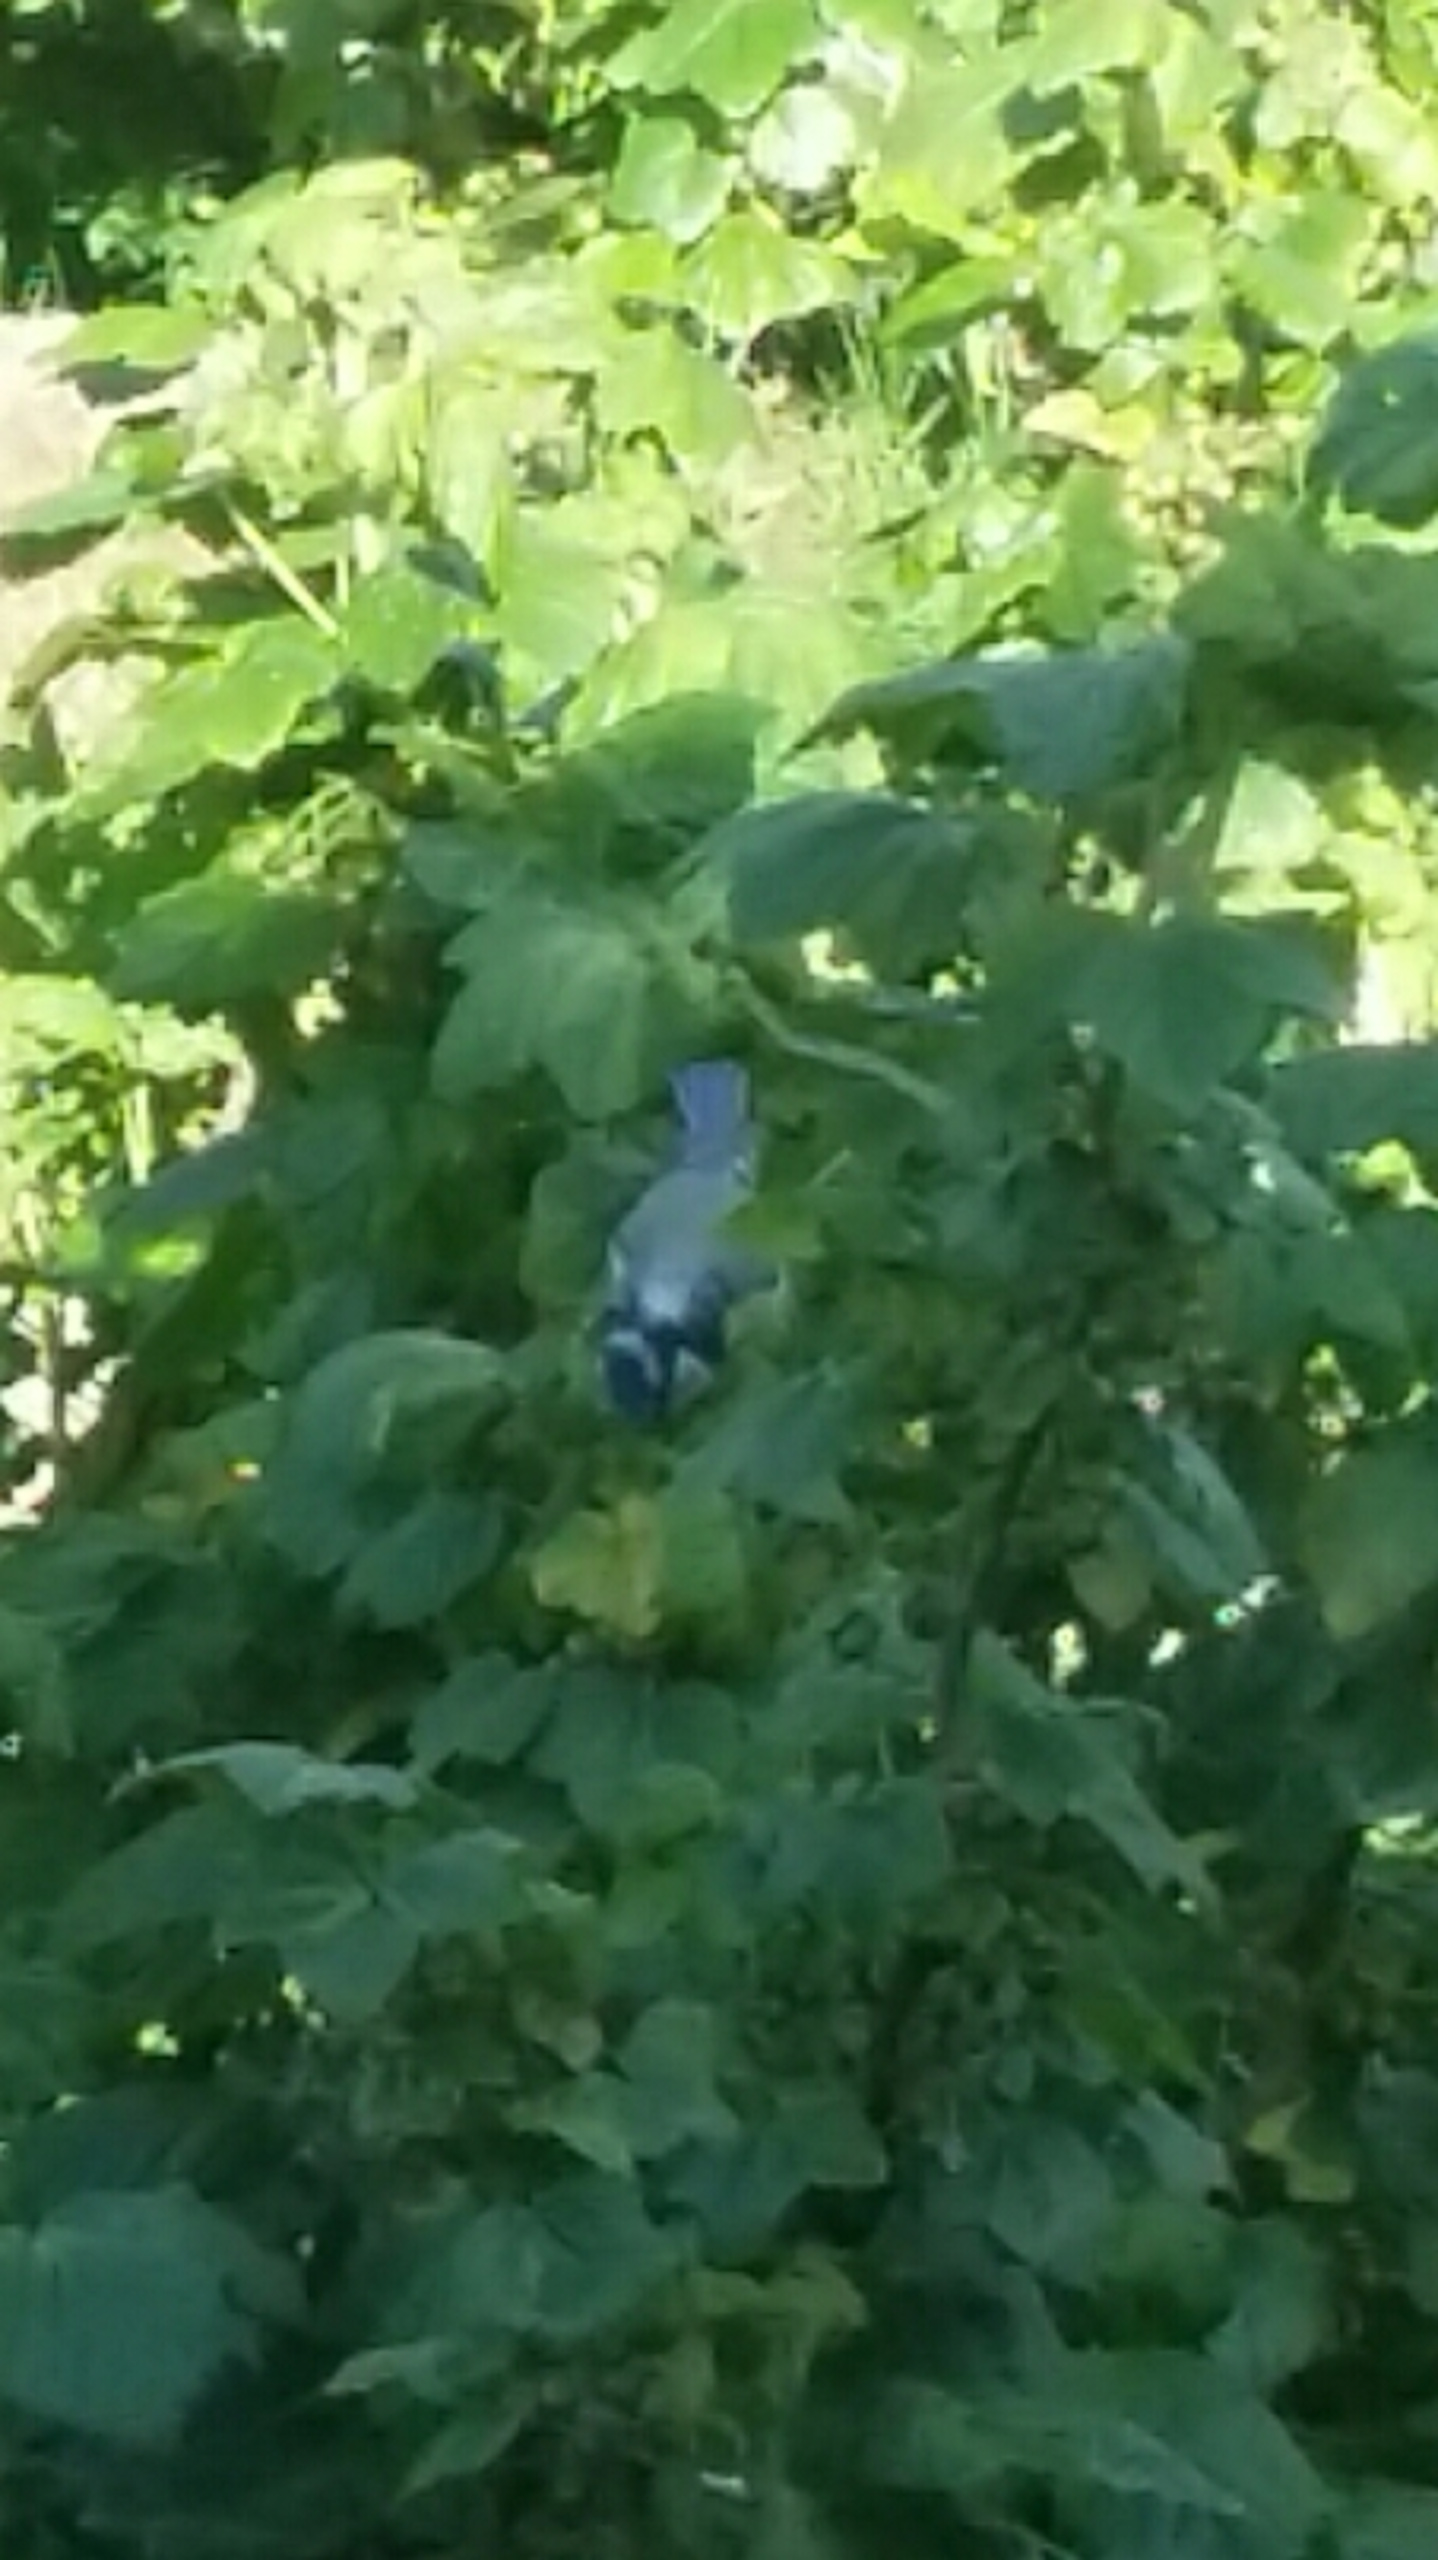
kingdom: Animalia
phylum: Chordata
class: Aves
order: Passeriformes
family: Paridae
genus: Cyanistes
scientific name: Cyanistes caeruleus
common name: Blåmejse
